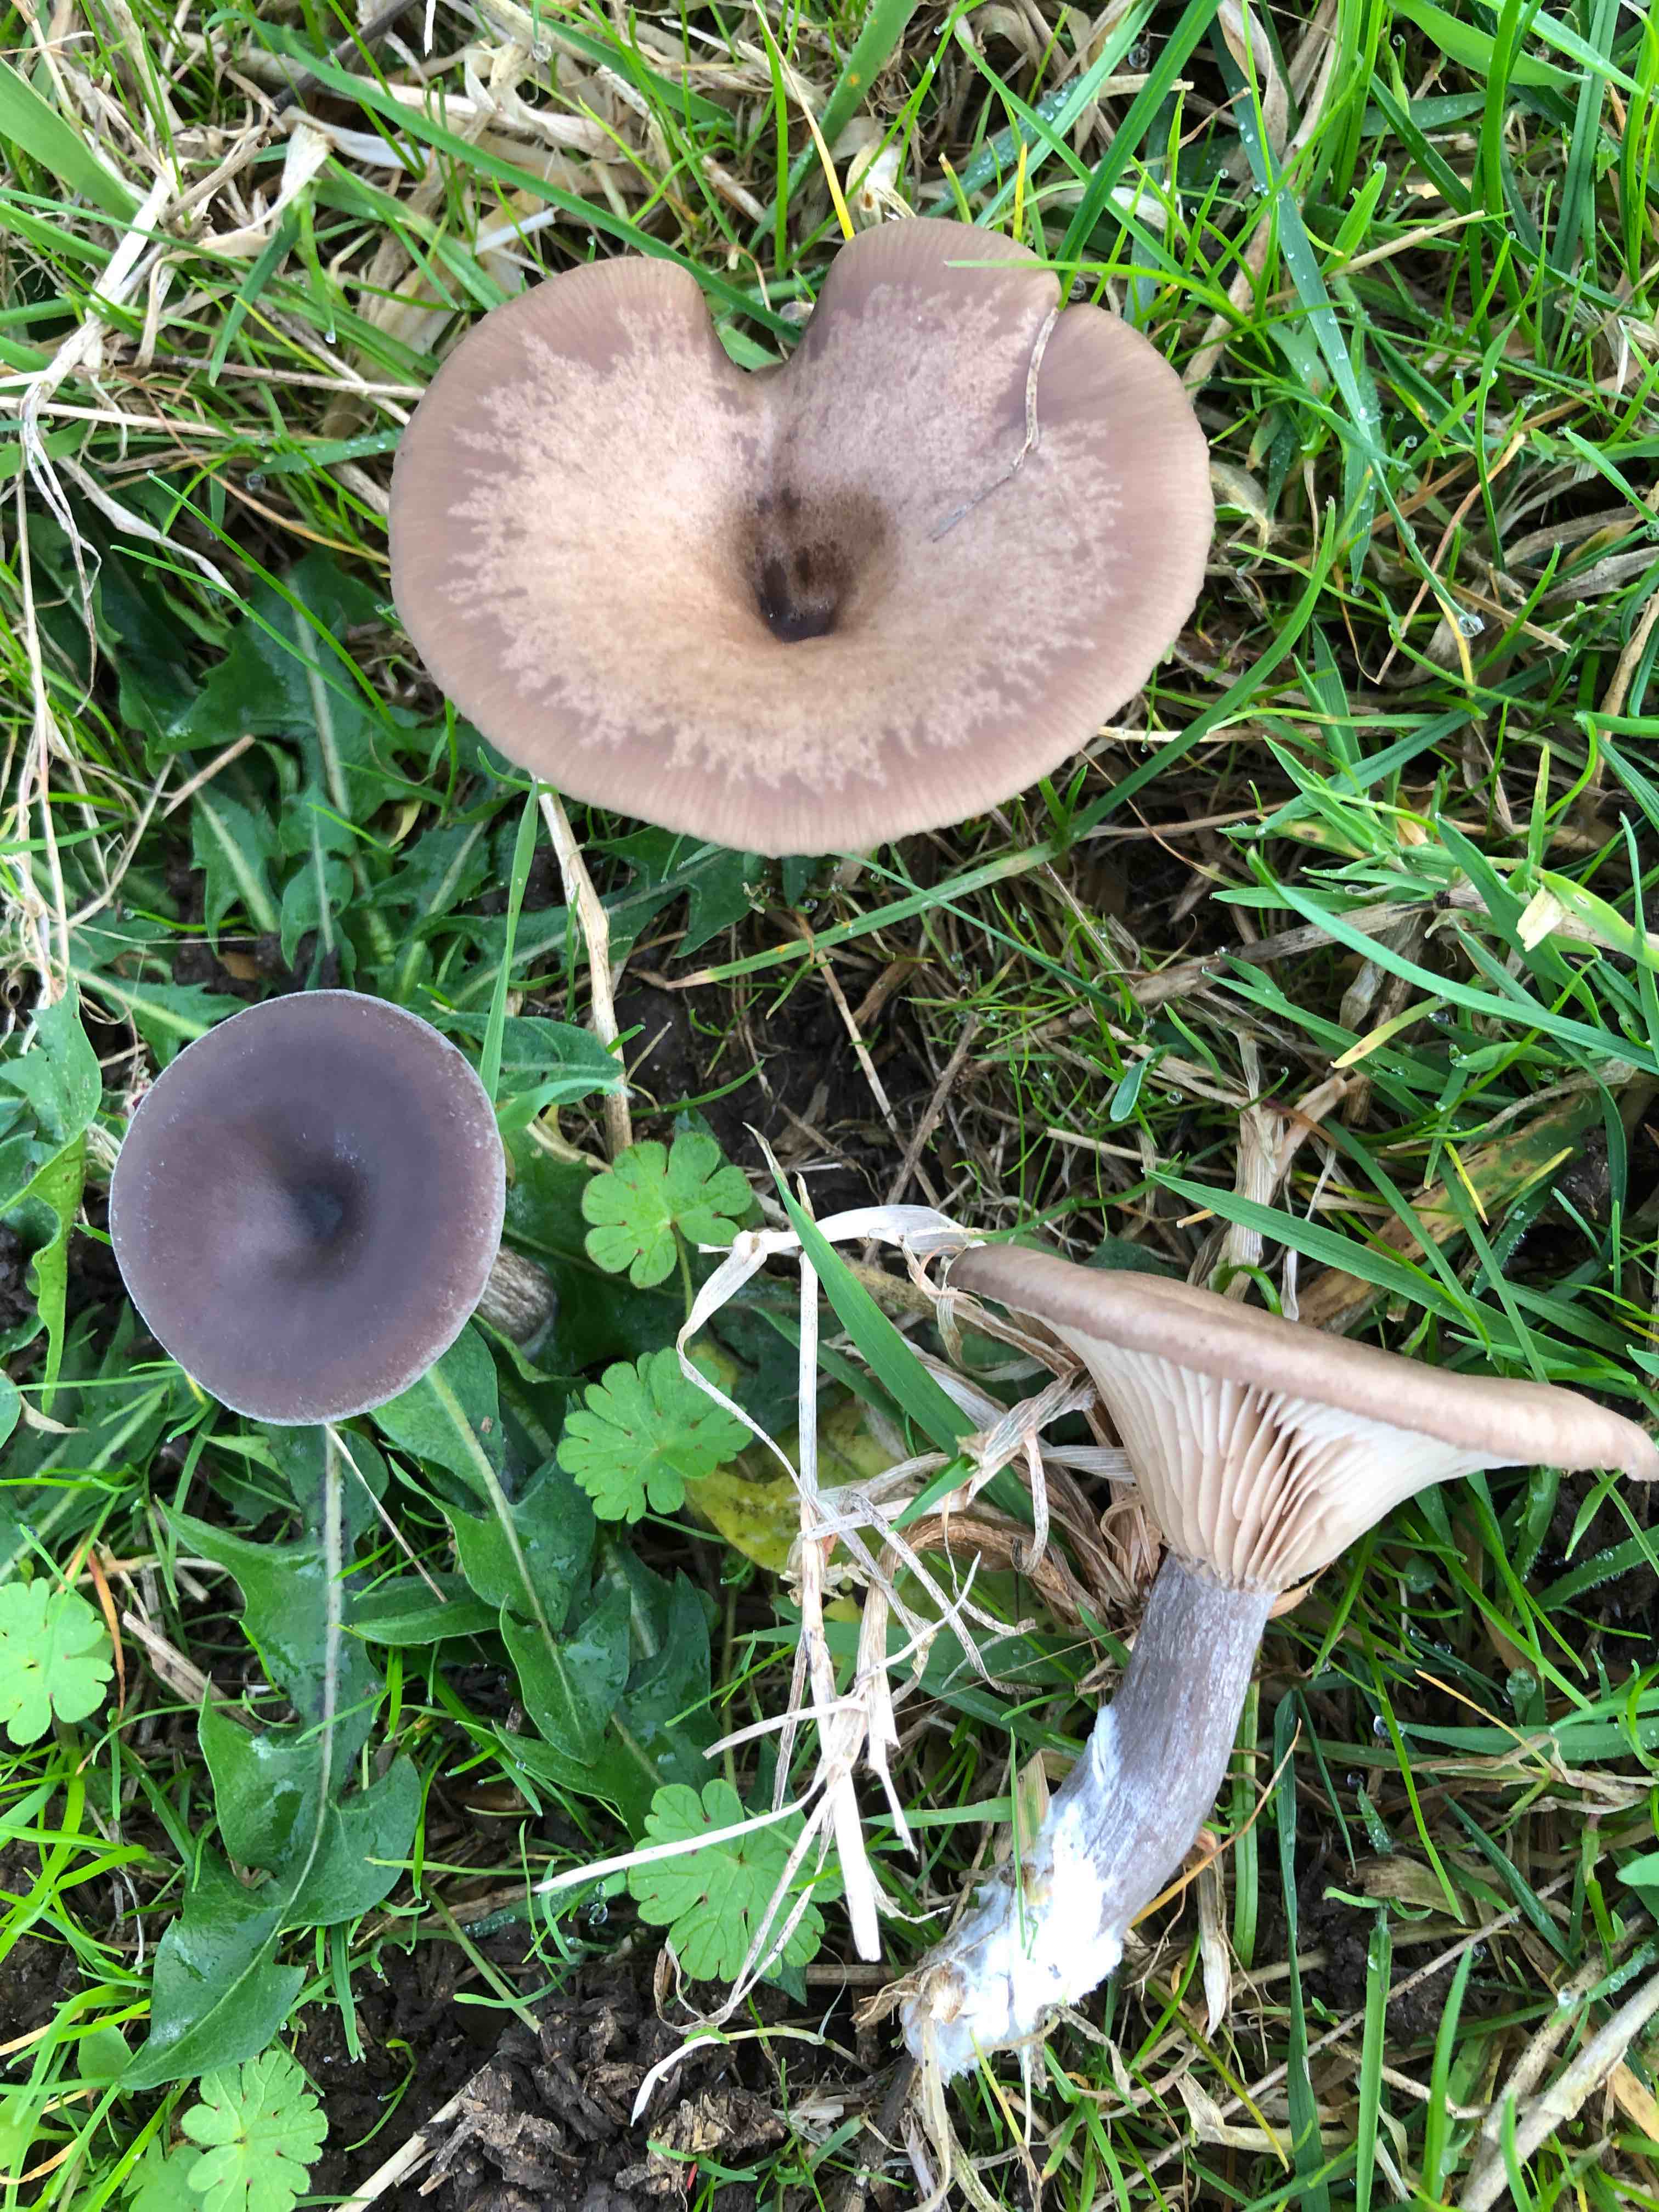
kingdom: Fungi
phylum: Basidiomycota
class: Agaricomycetes
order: Agaricales
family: Pseudoclitocybaceae
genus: Pseudoclitocybe
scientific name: Pseudoclitocybe expallens
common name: lille bægertragthat
